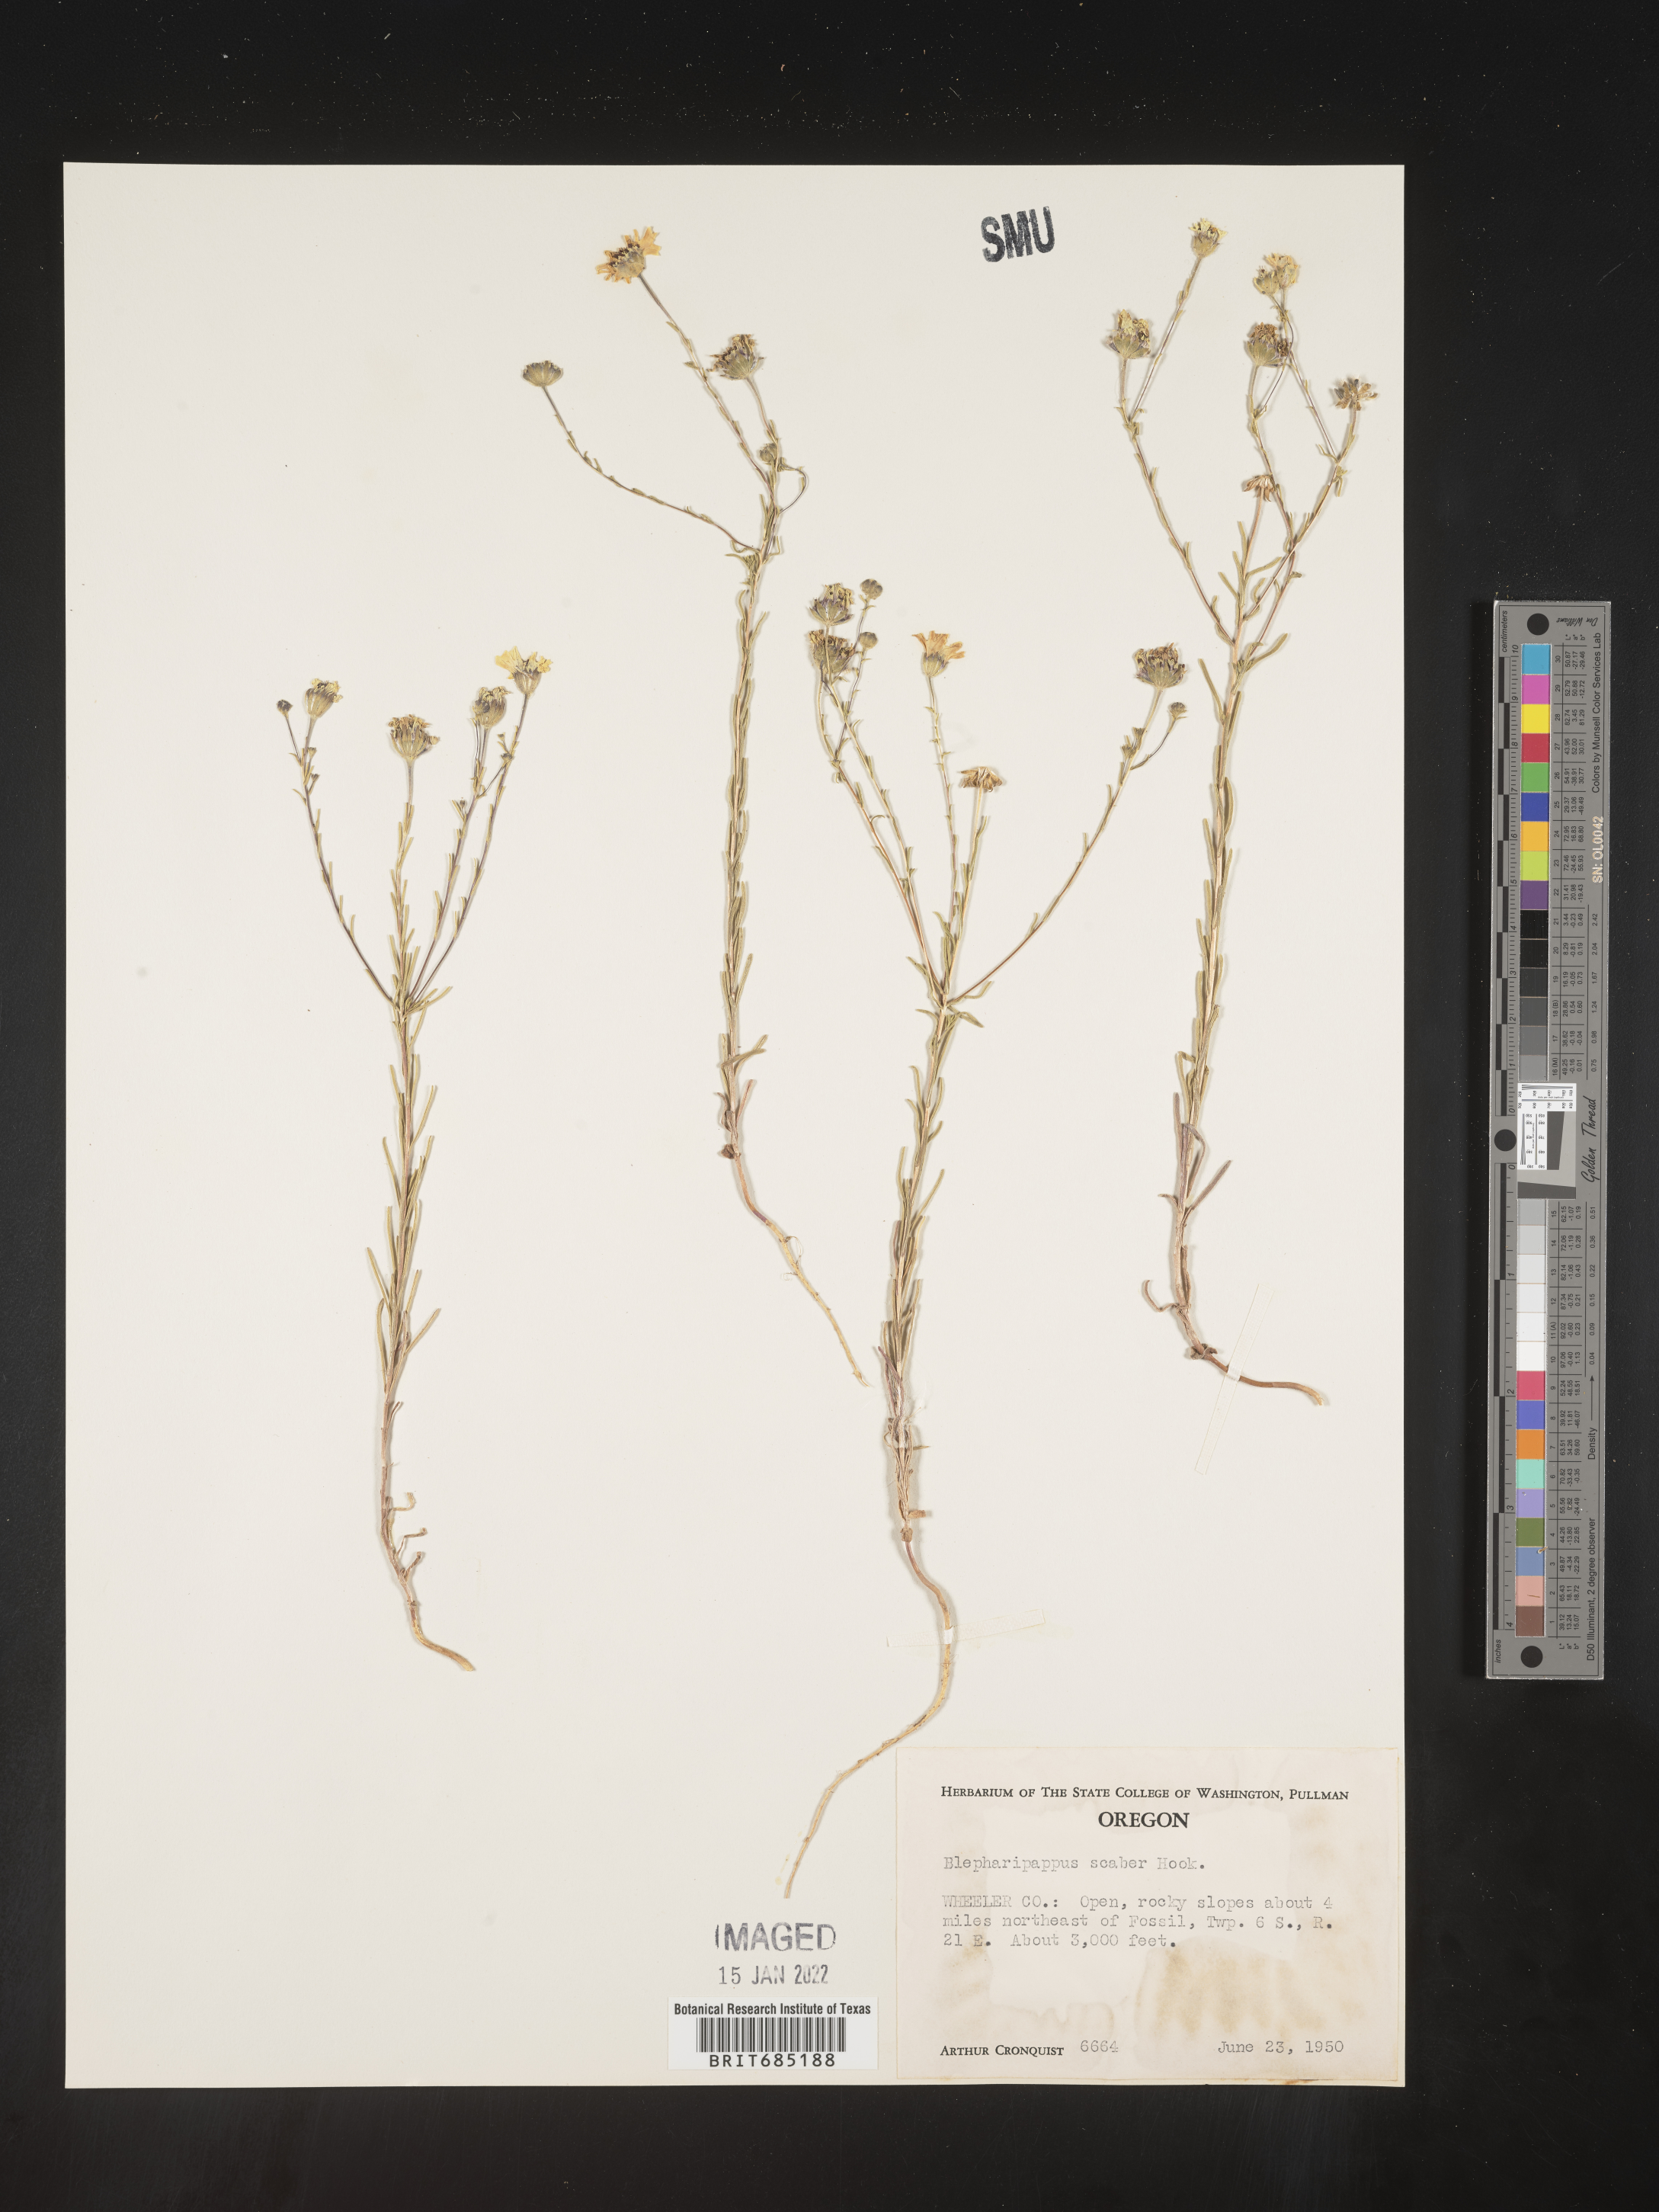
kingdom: Plantae
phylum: Tracheophyta
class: Magnoliopsida
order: Asterales
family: Asteraceae
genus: Blepharipappus
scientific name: Blepharipappus
